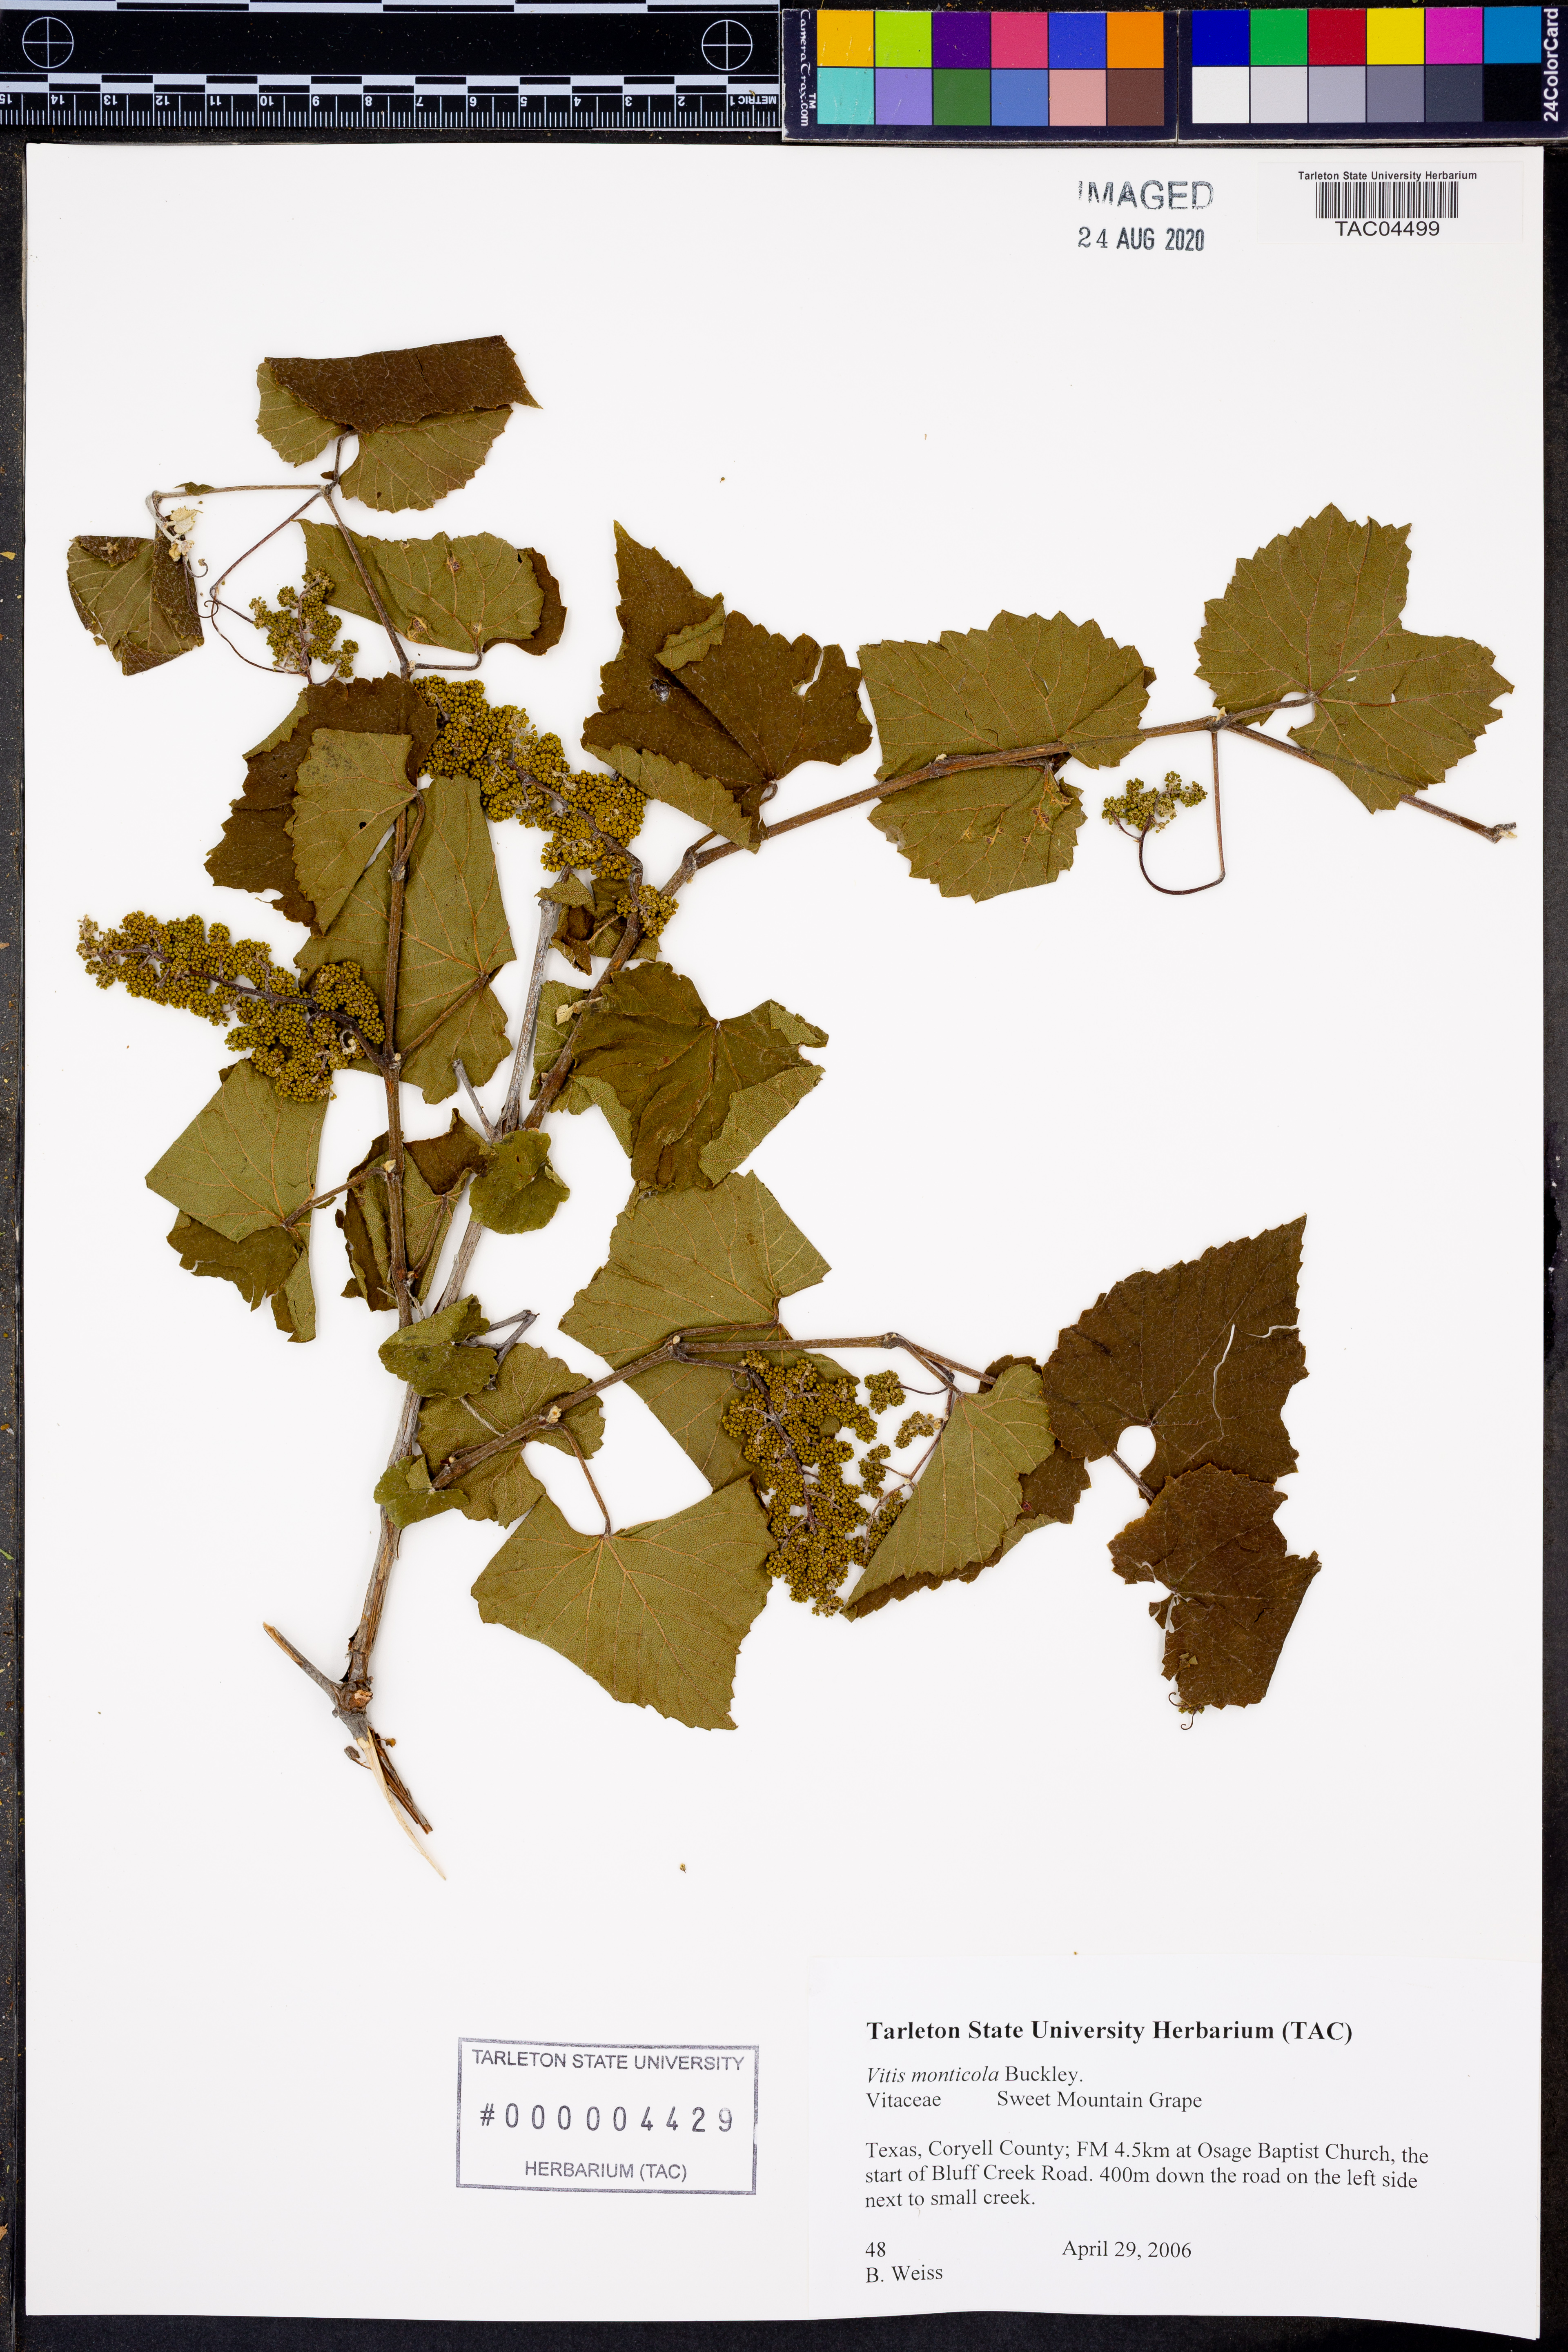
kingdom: Plantae
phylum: Tracheophyta
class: Magnoliopsida
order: Vitales
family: Vitaceae
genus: Vitis
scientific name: Vitis monticola
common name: Mountain grape
